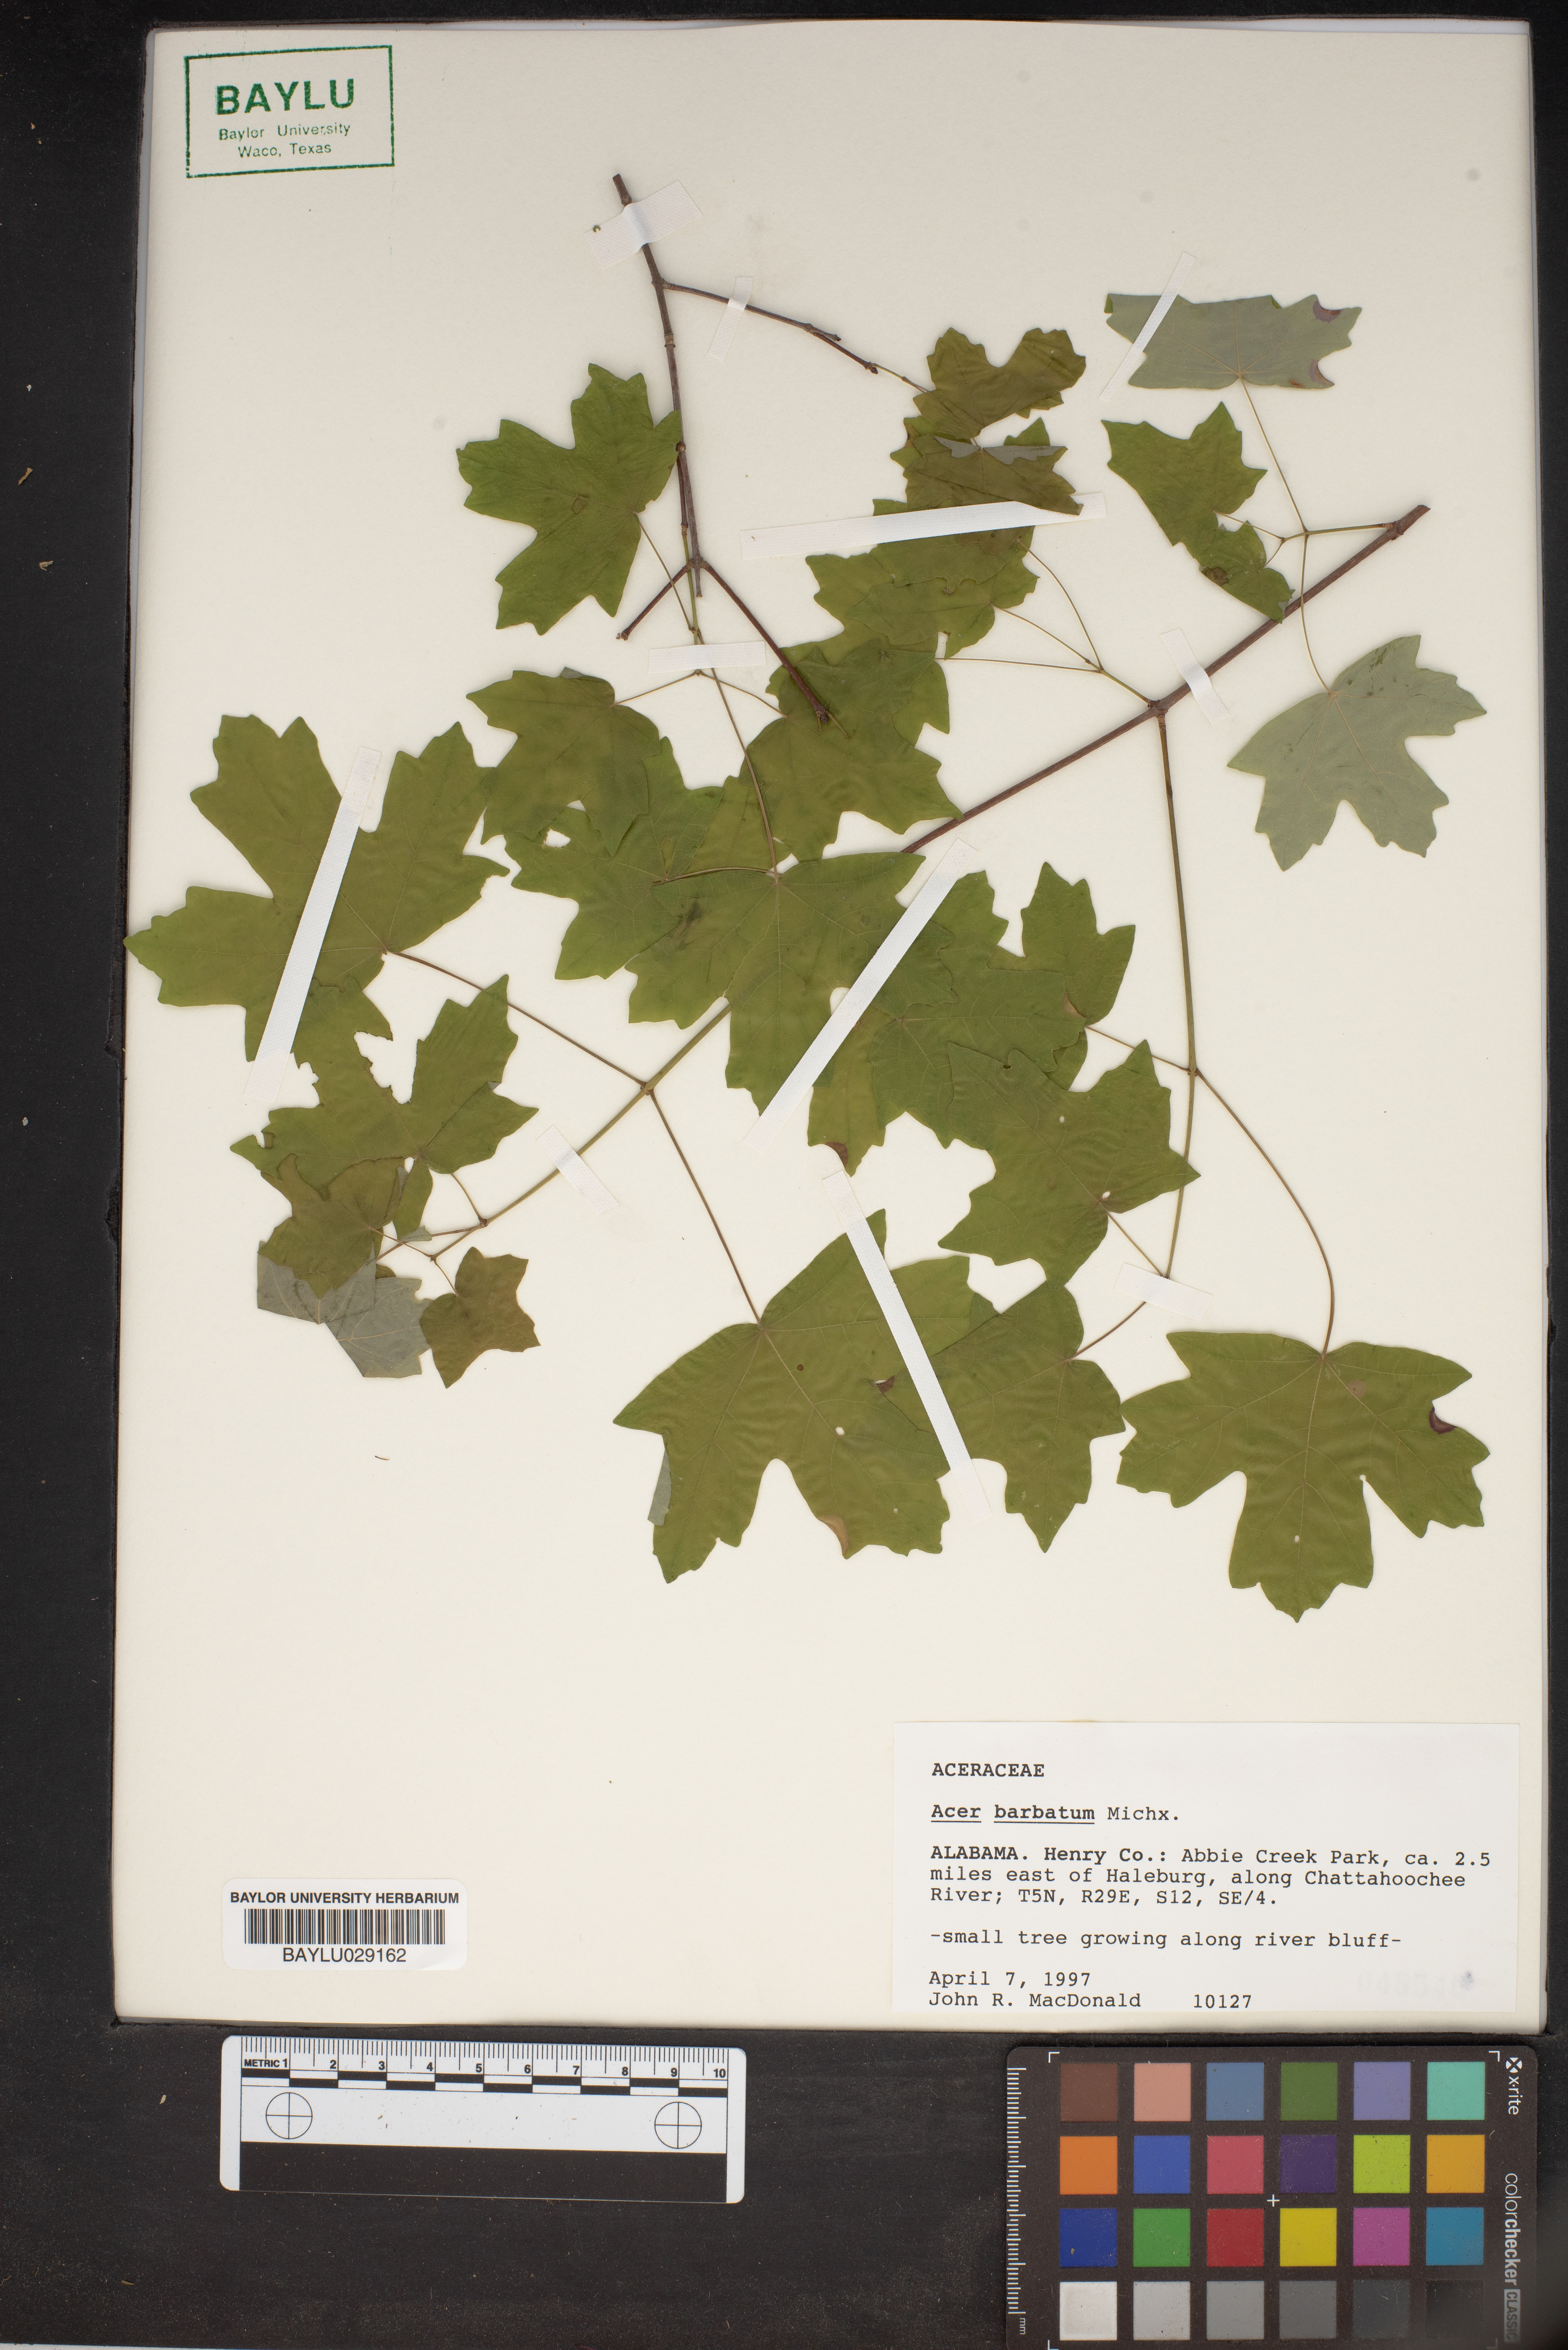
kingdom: Plantae
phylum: Tracheophyta
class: Magnoliopsida
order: Sapindales
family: Sapindaceae
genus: Acer
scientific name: Acer barbatum
